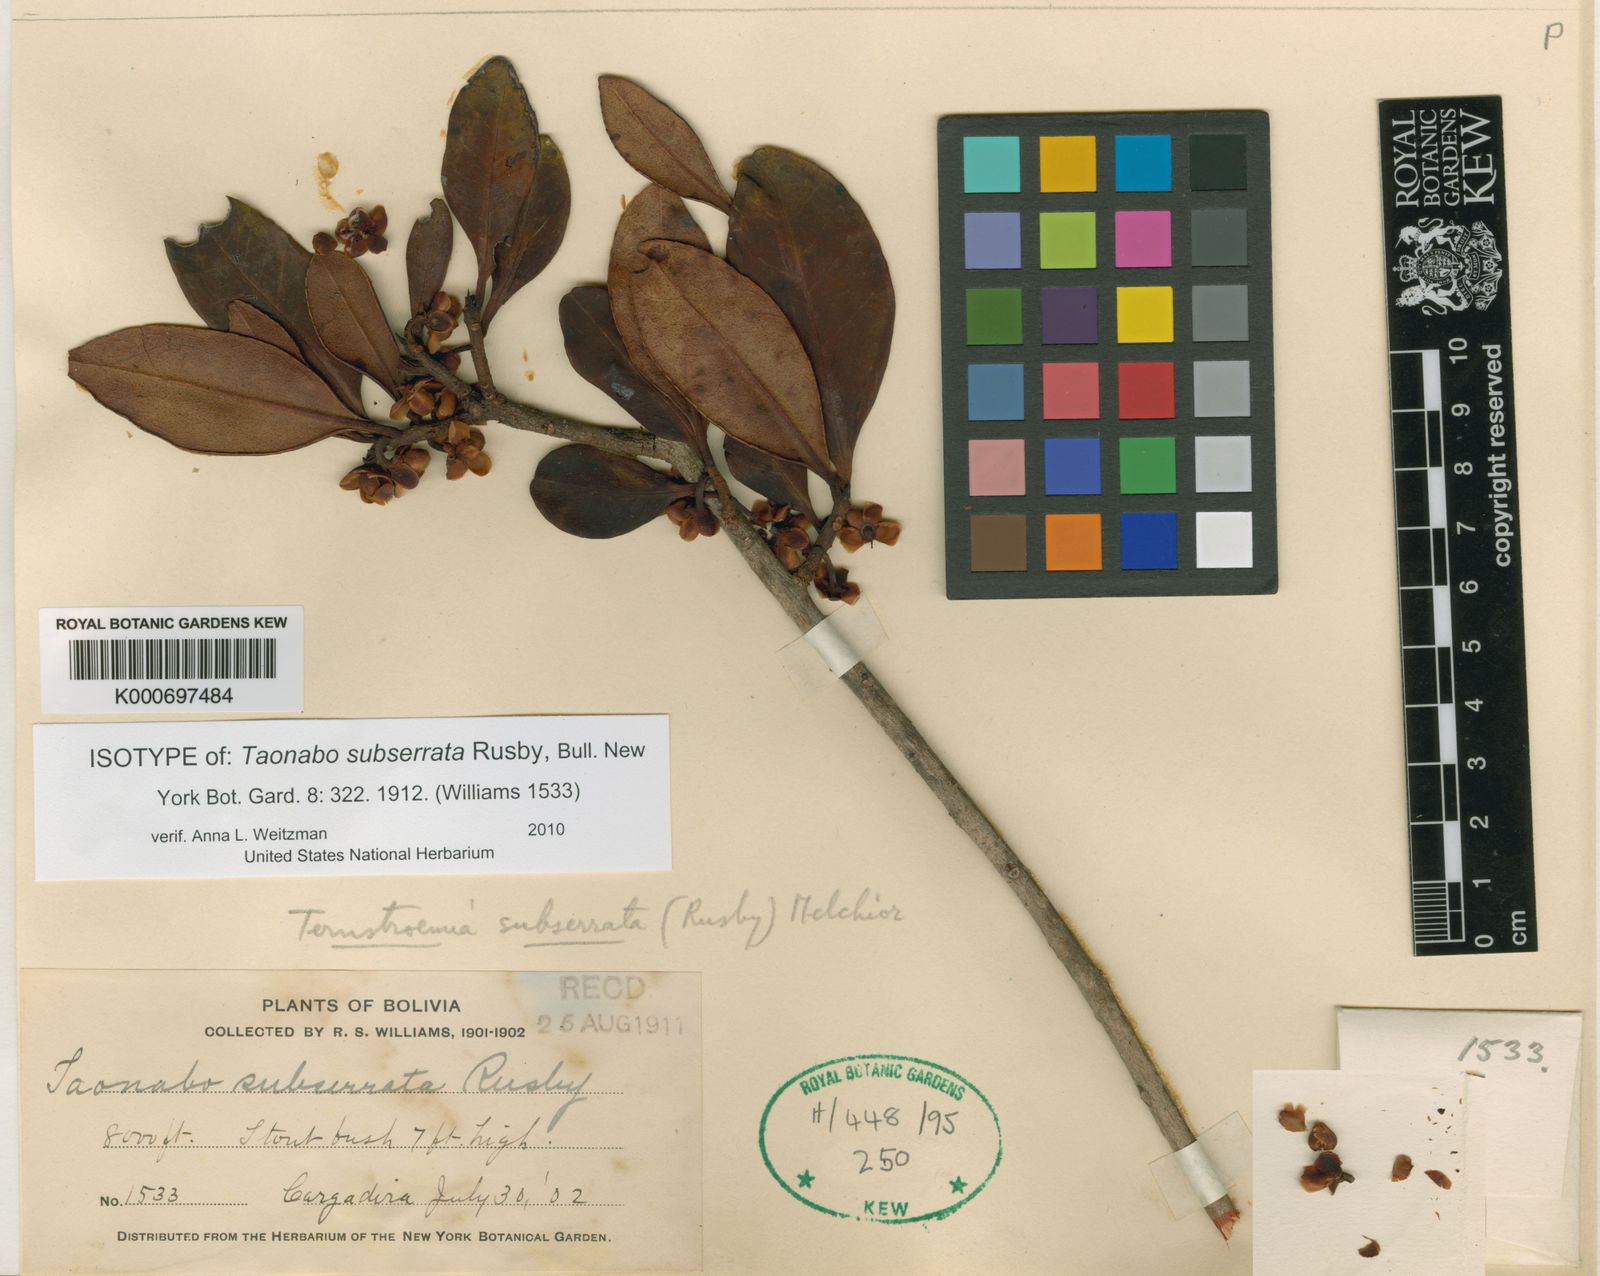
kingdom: Plantae
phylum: Tracheophyta
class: Magnoliopsida
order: Ericales
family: Pentaphylacaceae
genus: Ternstroemia
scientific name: Ternstroemia subserrata
